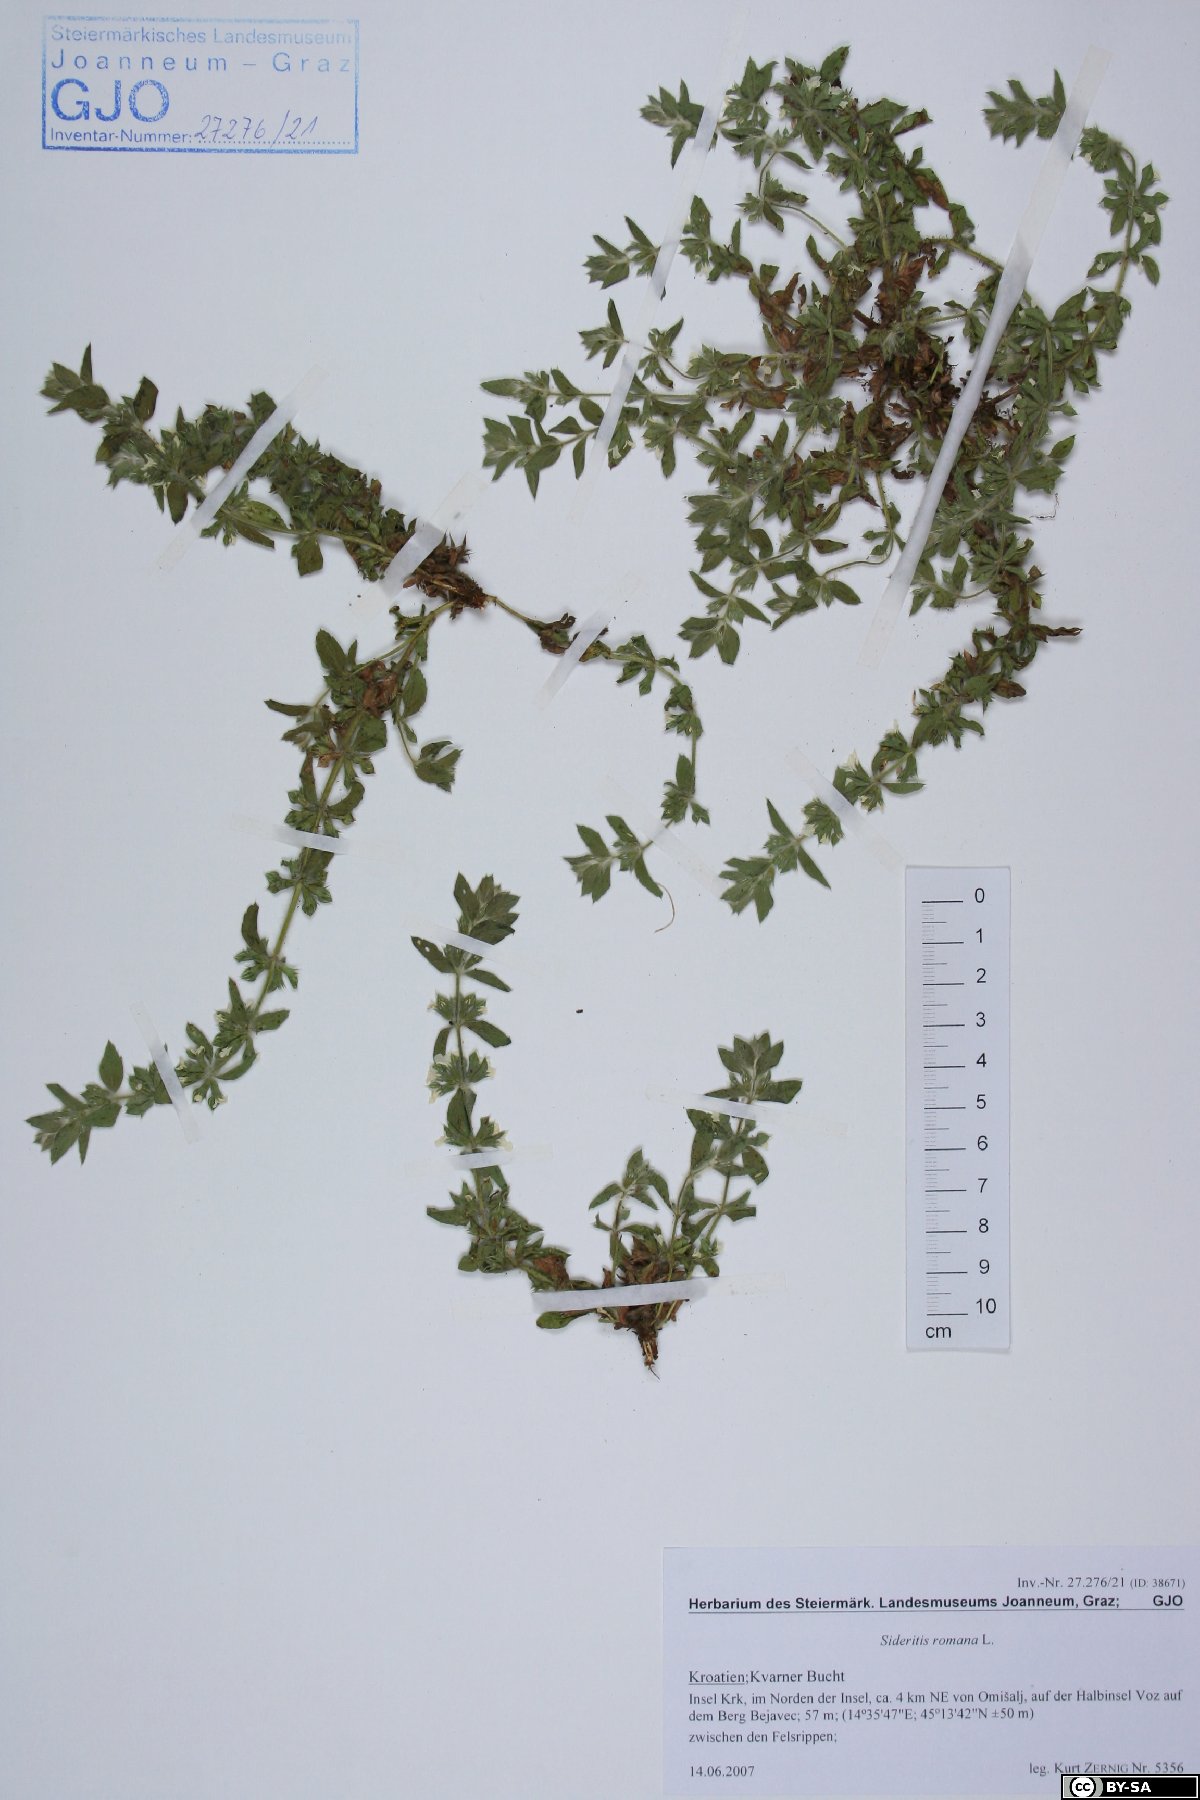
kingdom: Plantae
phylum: Tracheophyta
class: Magnoliopsida
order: Lamiales
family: Lamiaceae
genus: Sideritis
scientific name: Sideritis romana
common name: Simplebeak ironwort
